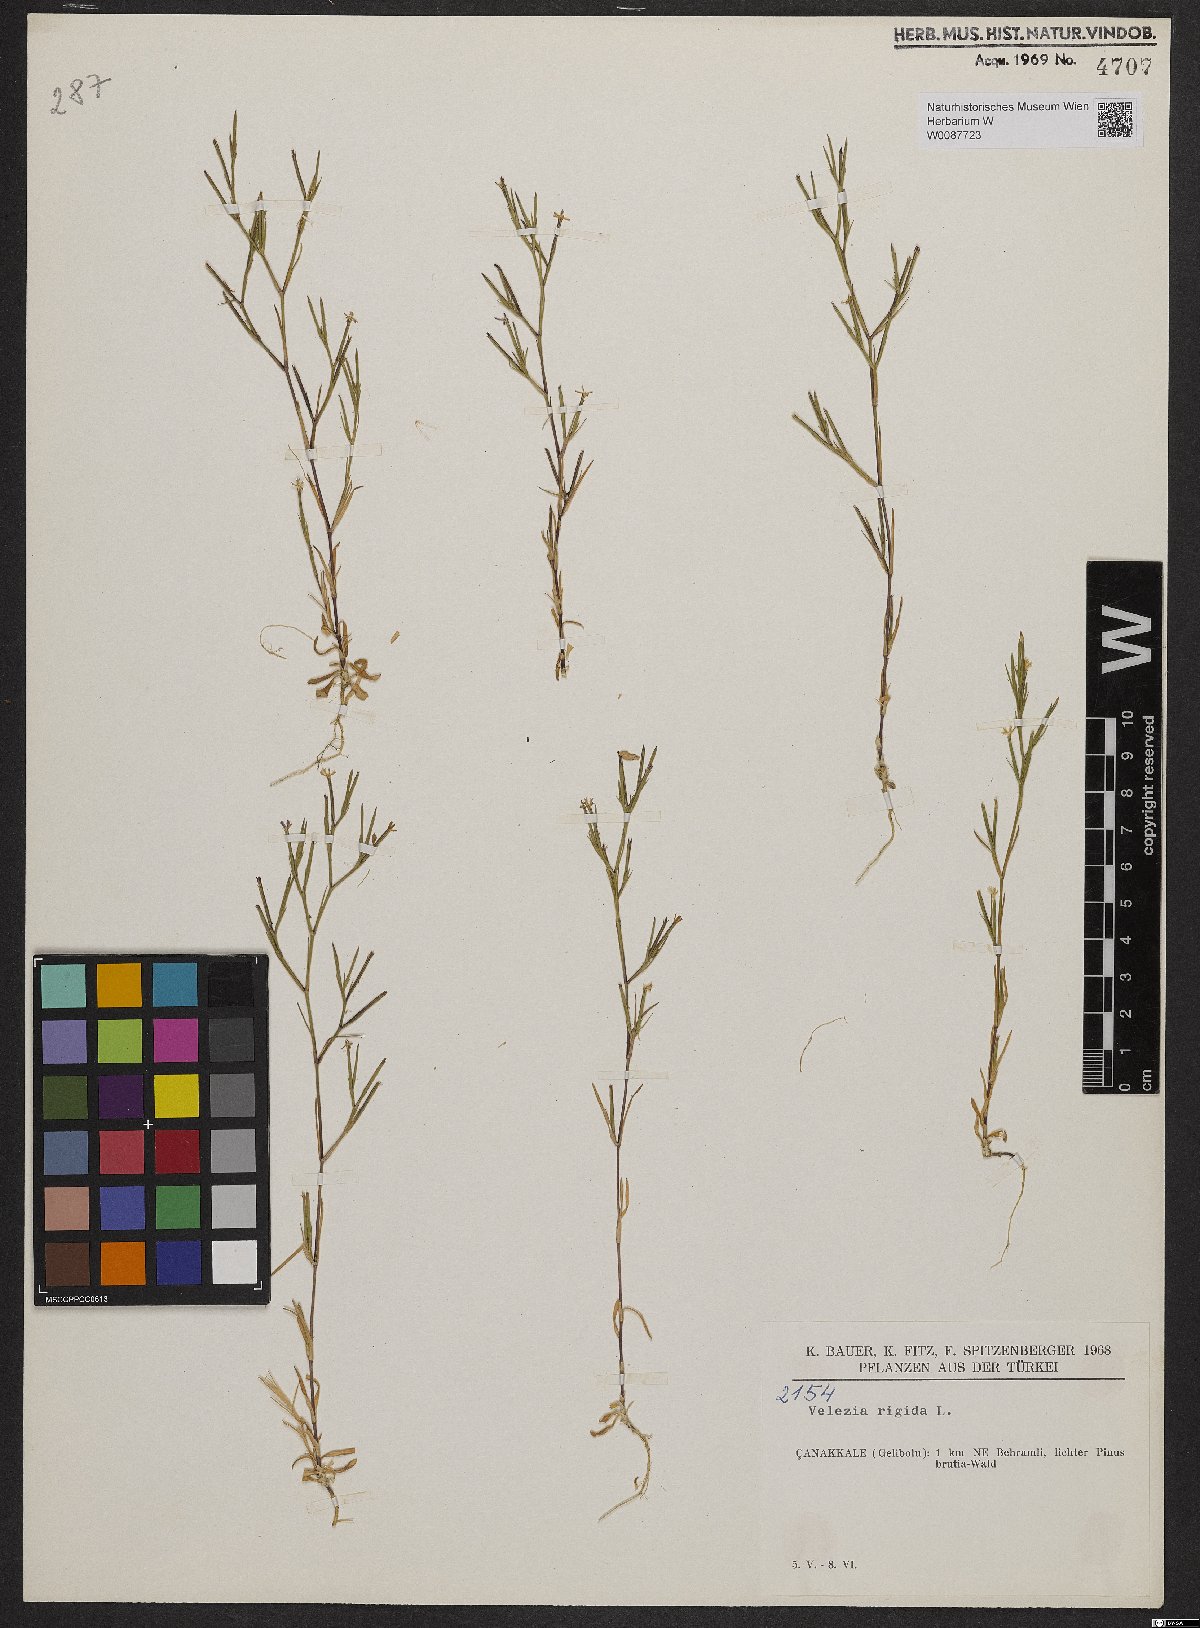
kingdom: Plantae
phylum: Tracheophyta
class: Magnoliopsida
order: Caryophyllales
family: Caryophyllaceae
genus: Dianthus
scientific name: Dianthus nudiflorus
